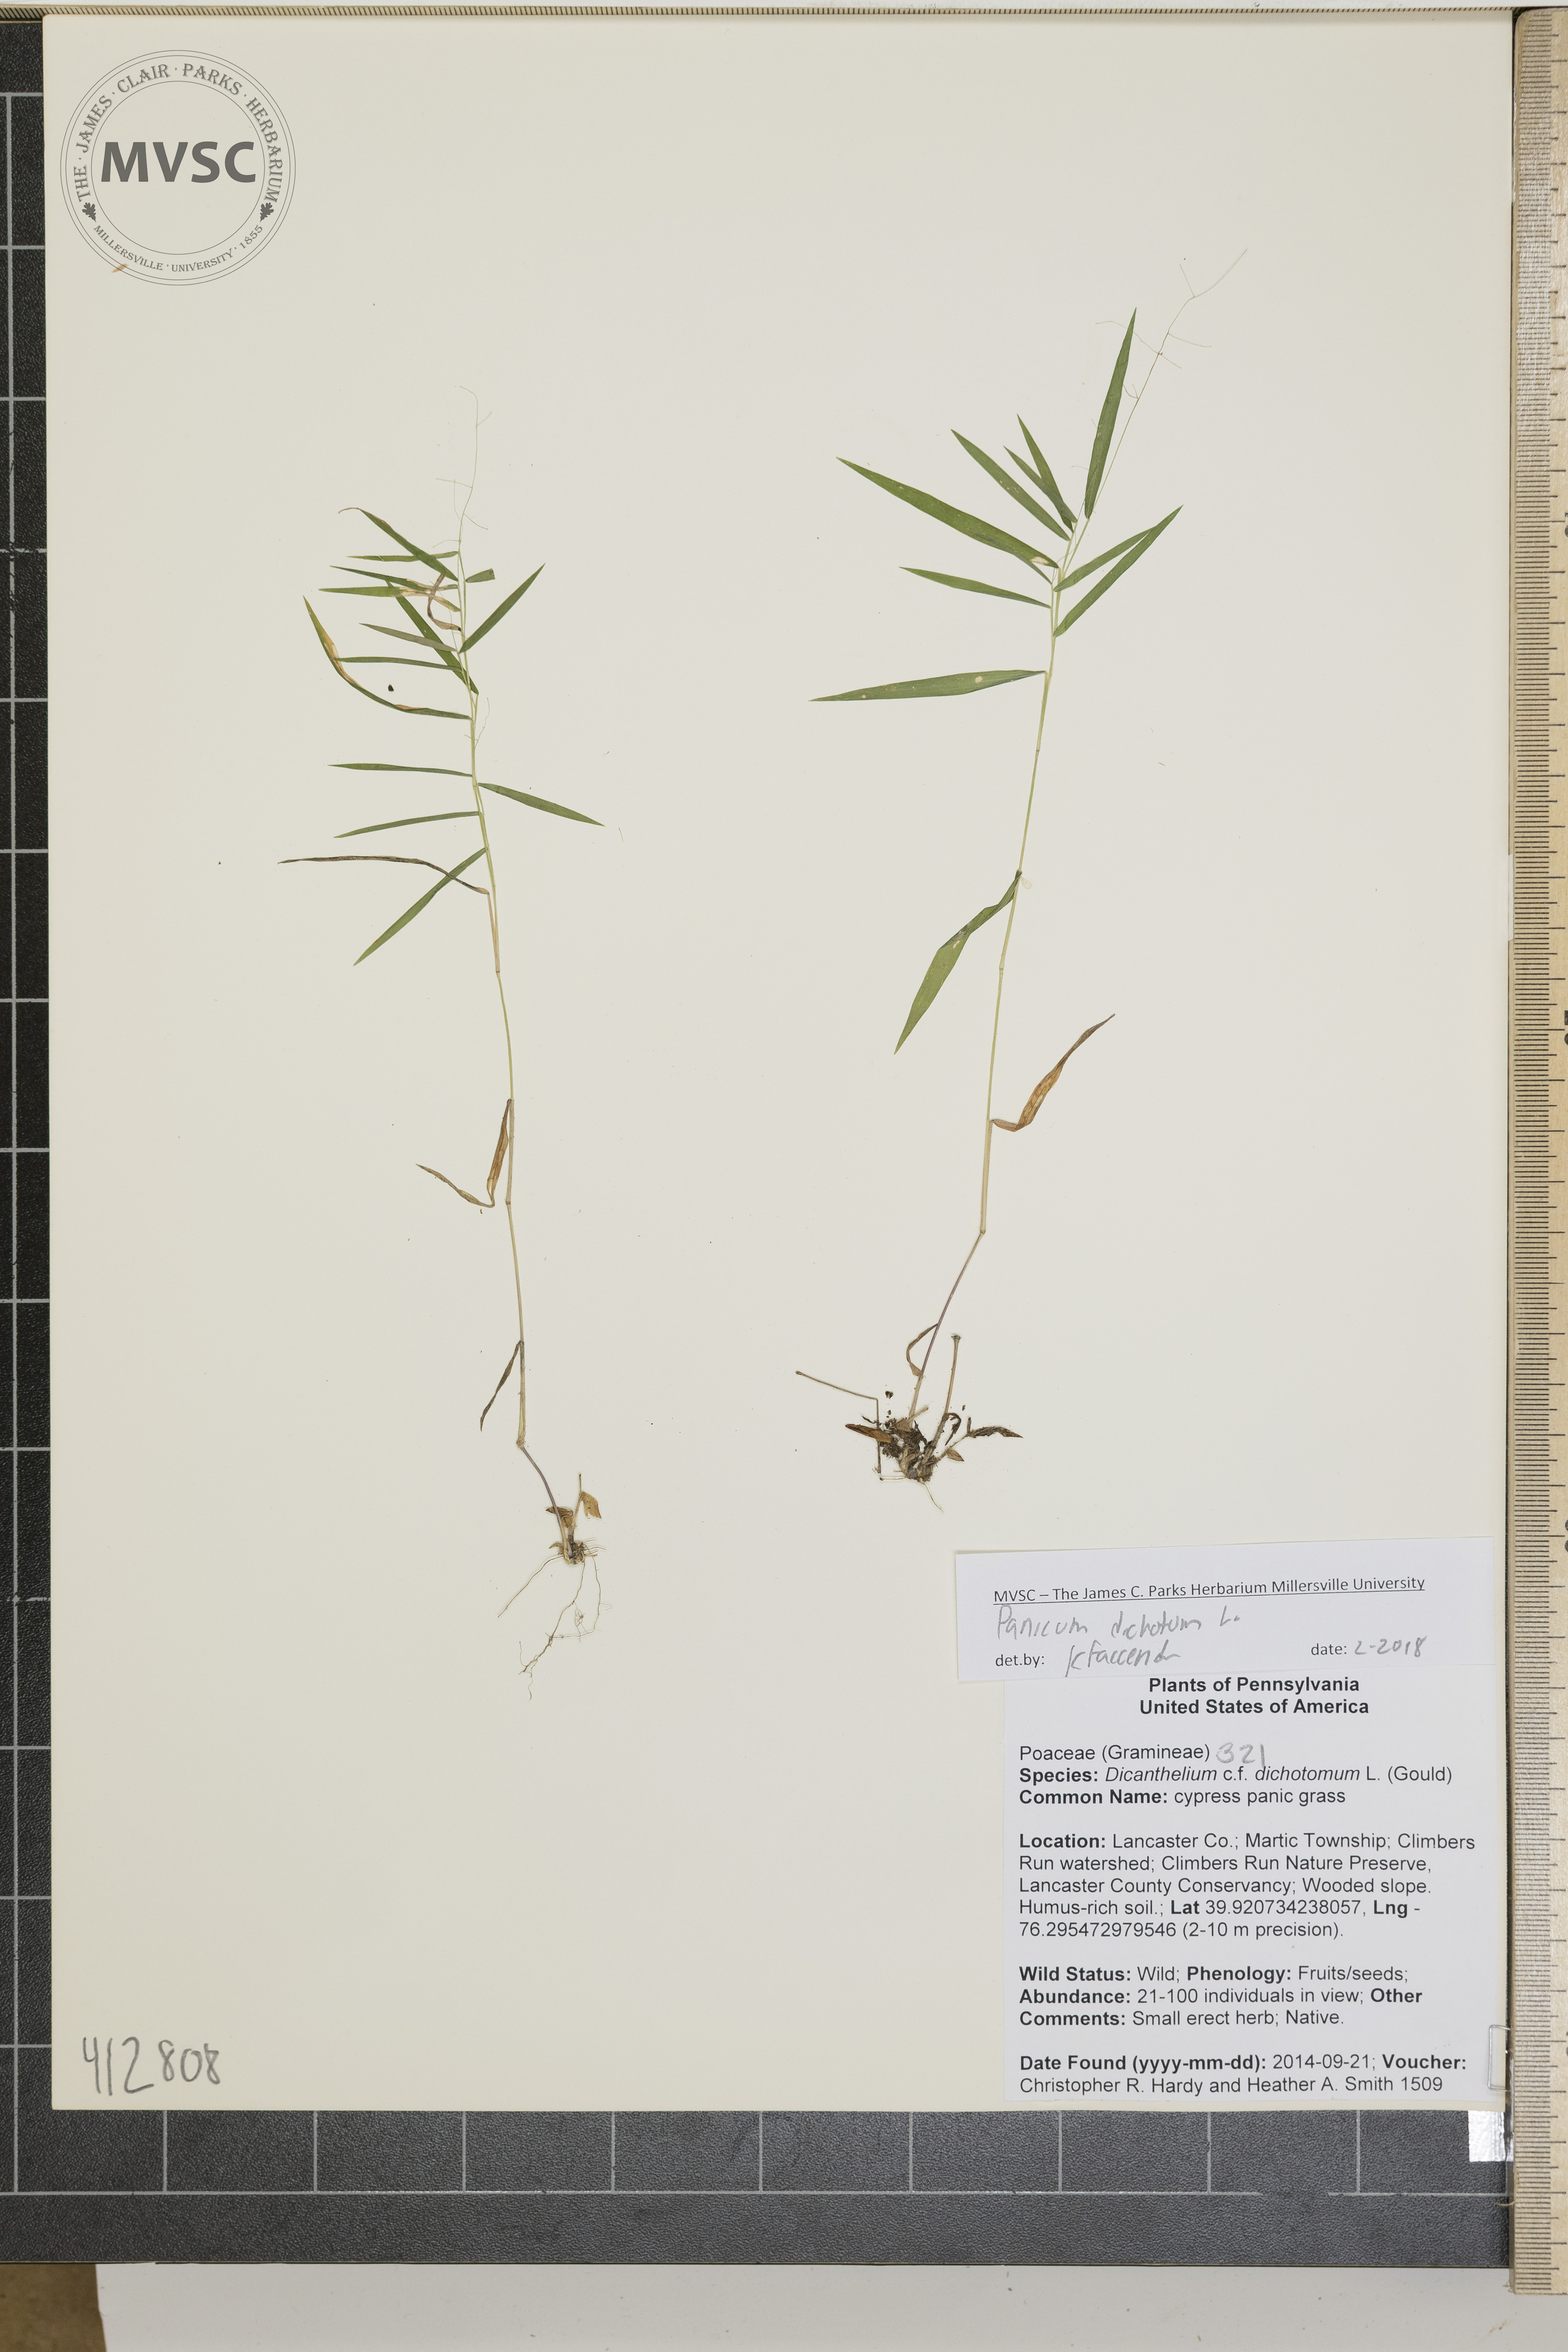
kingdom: Plantae
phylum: Tracheophyta
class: Liliopsida
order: Poales
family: Poaceae
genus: Dichanthelium
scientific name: Dichanthelium dichotomum
